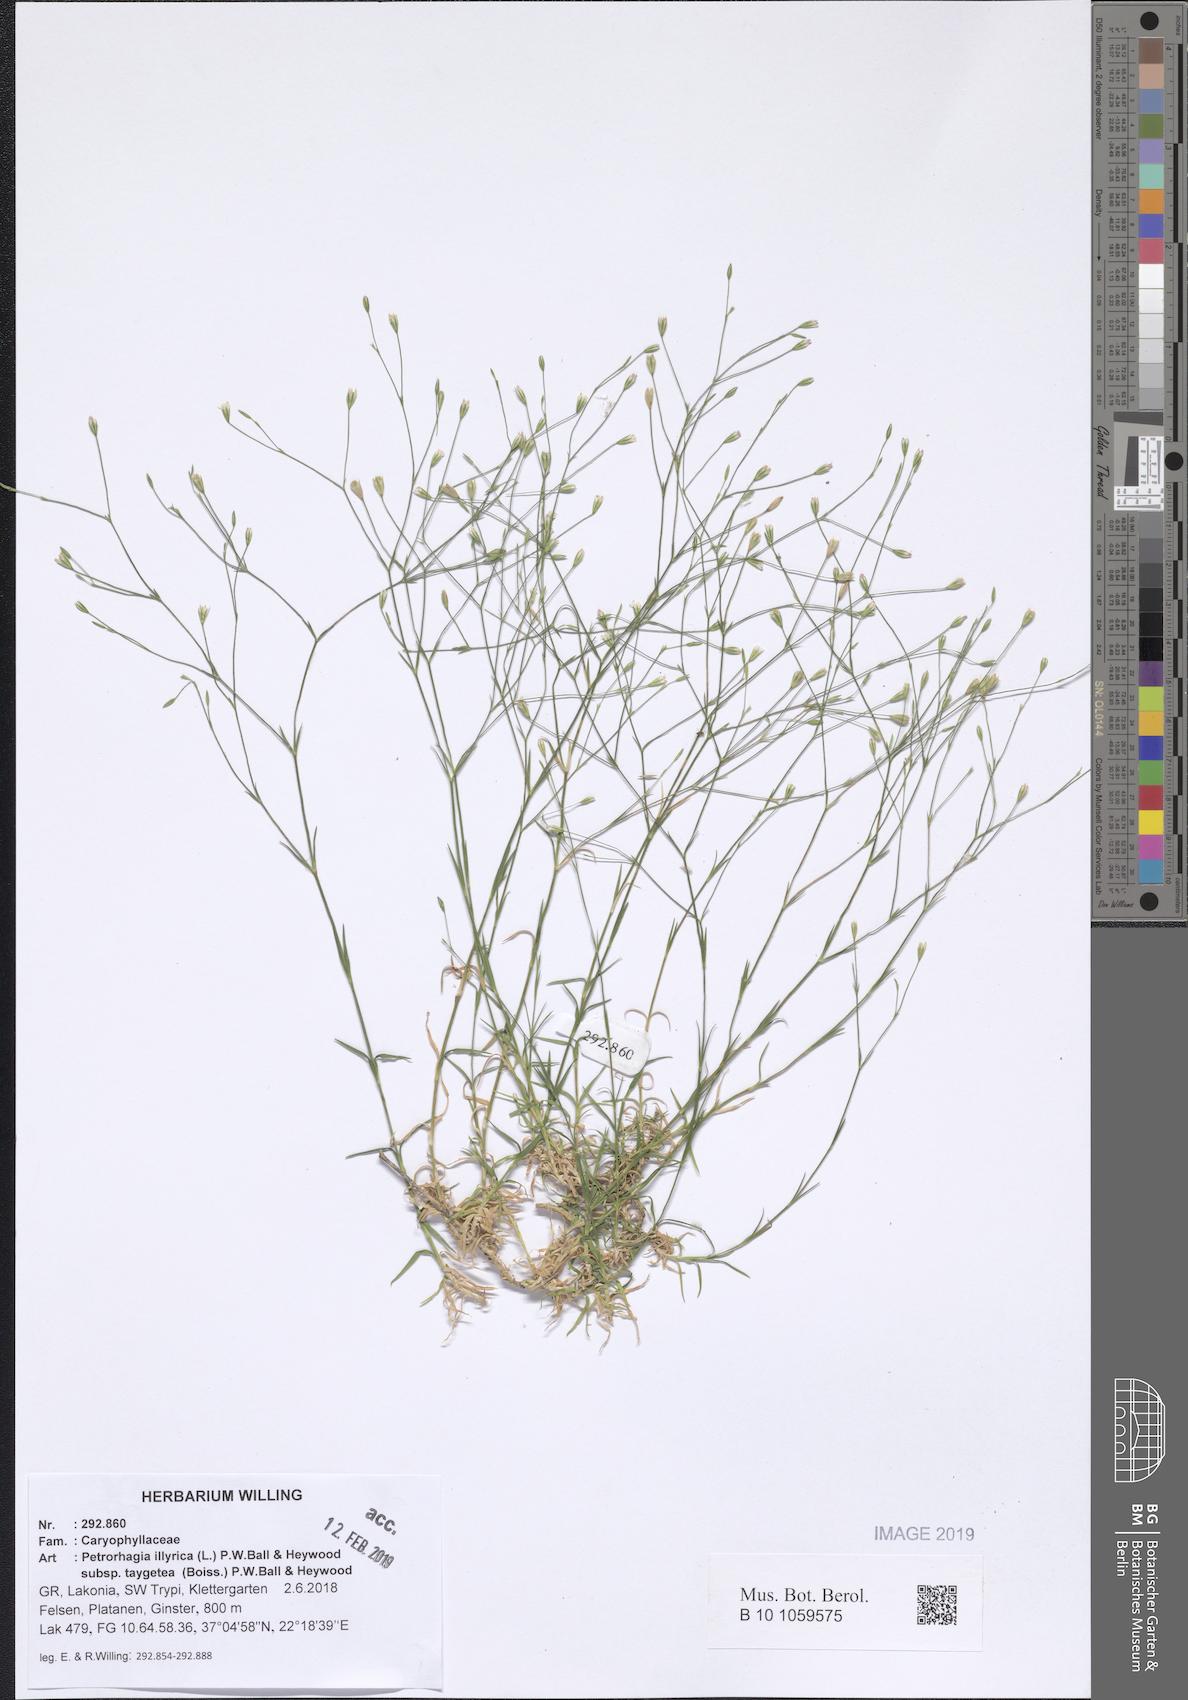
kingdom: Plantae
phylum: Tracheophyta
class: Magnoliopsida
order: Caryophyllales
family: Caryophyllaceae
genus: Dianthus
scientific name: Dianthus illyricus
